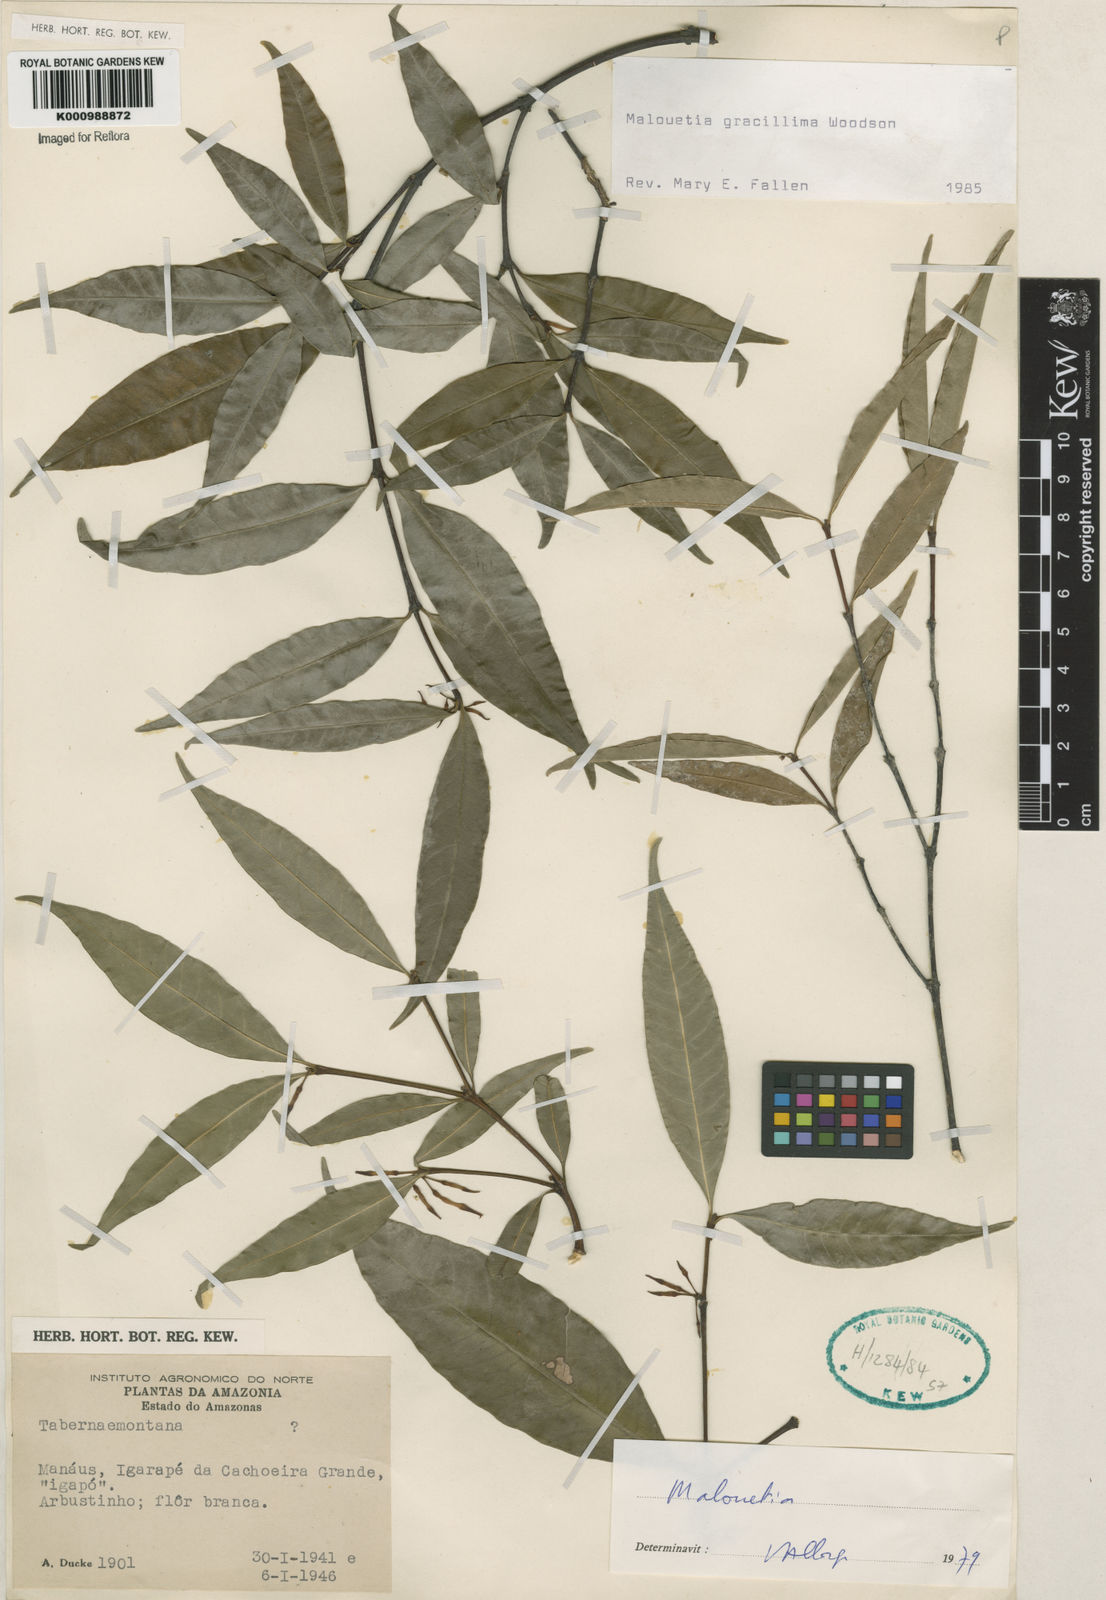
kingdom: Plantae
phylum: Tracheophyta
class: Magnoliopsida
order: Gentianales
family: Apocynaceae
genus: Malouetia
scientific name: Malouetia gracillima
